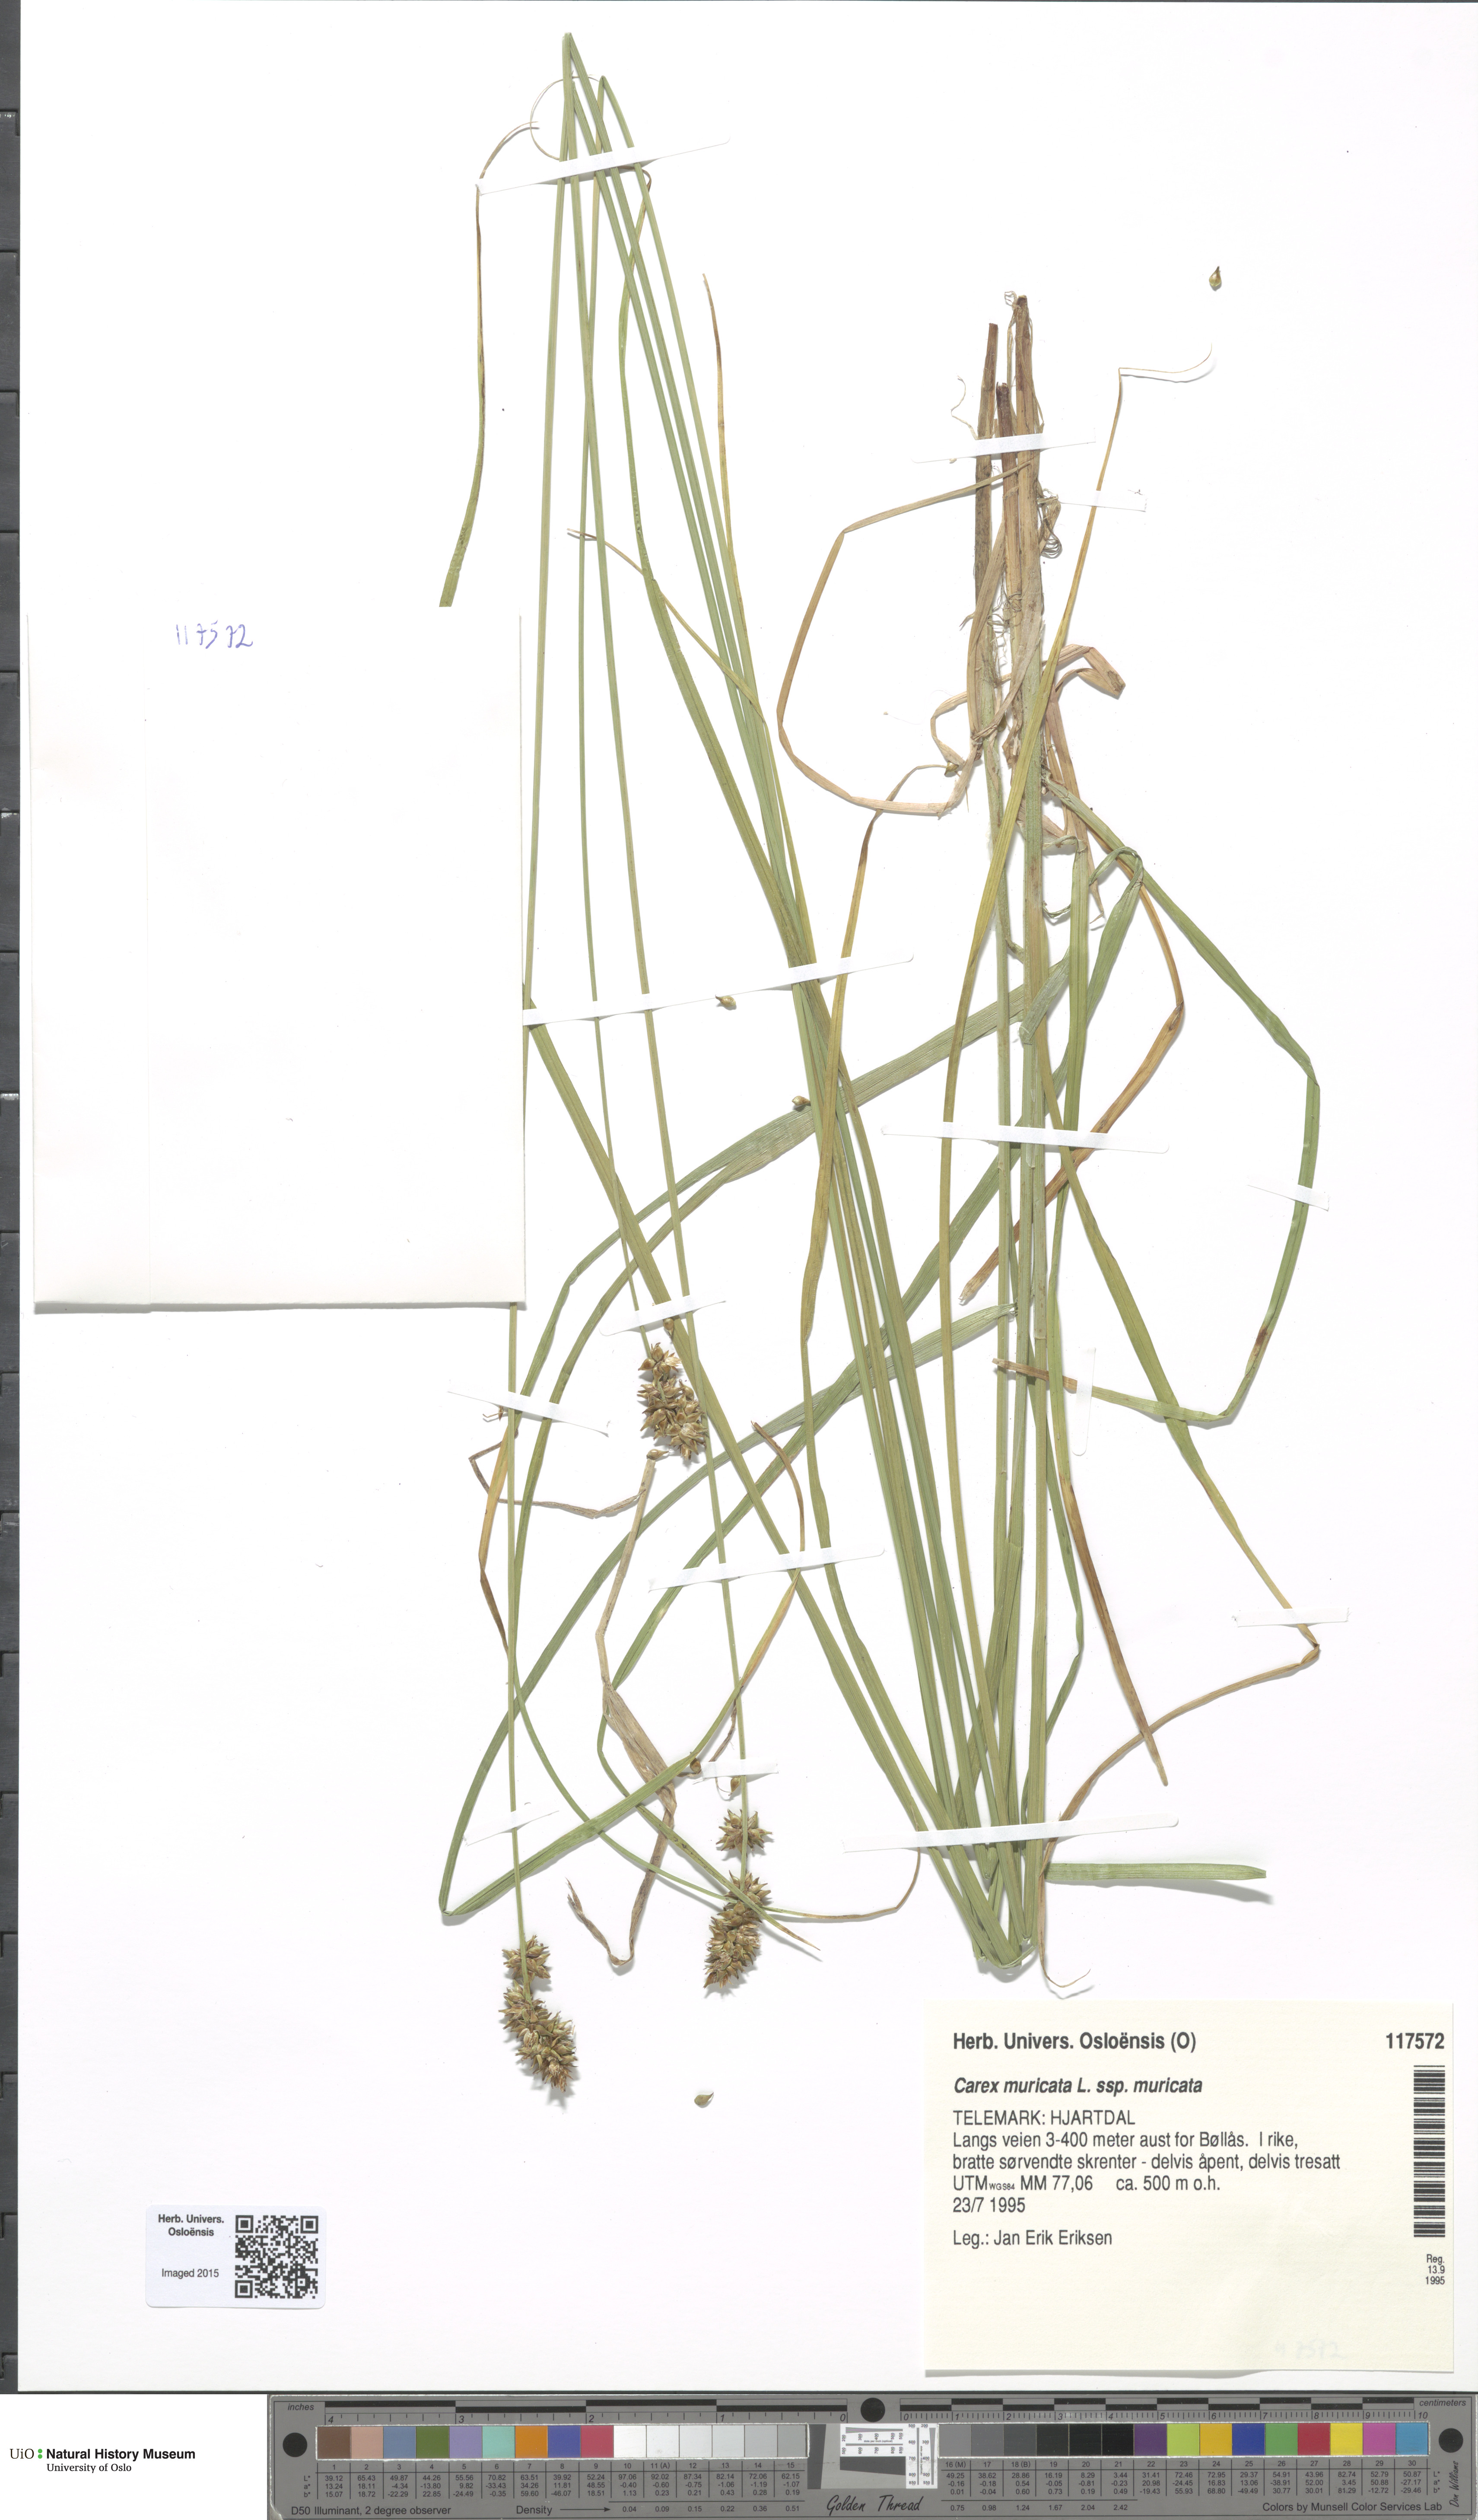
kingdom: Plantae
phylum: Tracheophyta
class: Liliopsida
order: Poales
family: Cyperaceae
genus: Carex
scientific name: Carex muricata
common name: Rough sedge
